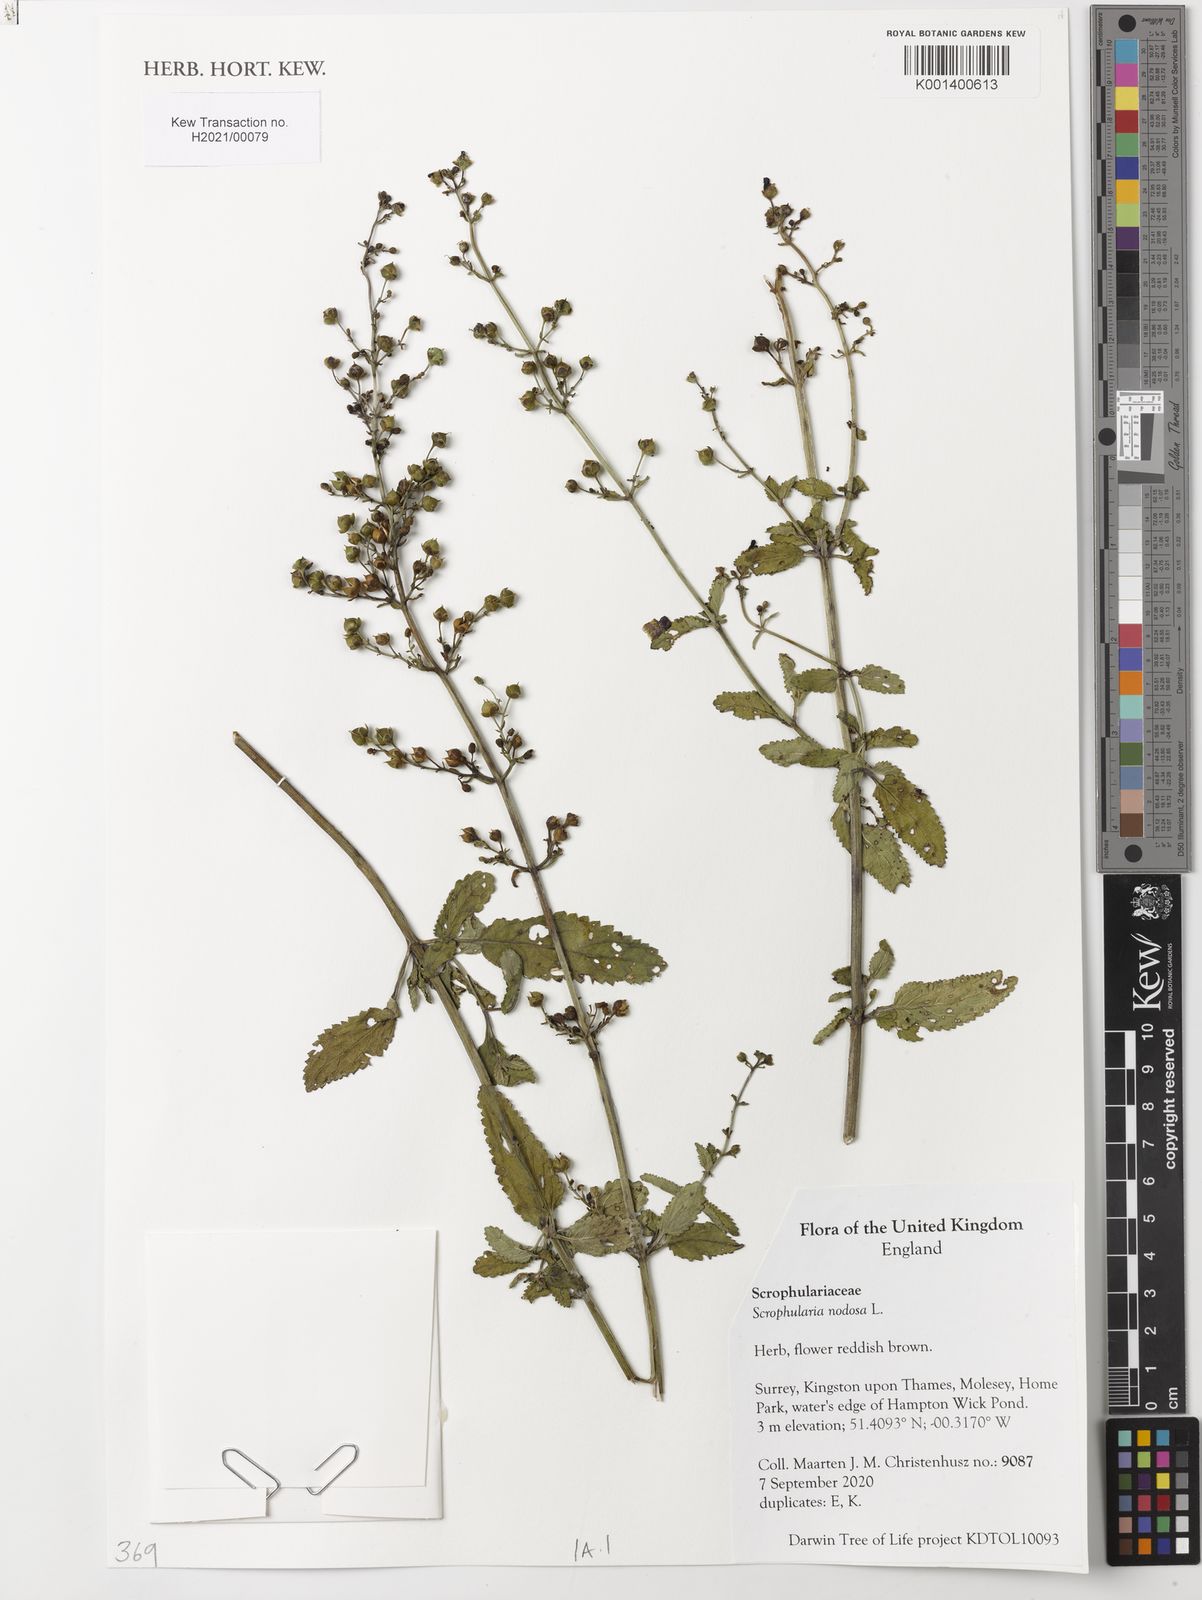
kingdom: Plantae
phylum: Tracheophyta
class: Magnoliopsida
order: Lamiales
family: Scrophulariaceae
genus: Scrophularia
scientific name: Scrophularia auriculata
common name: Water betony
